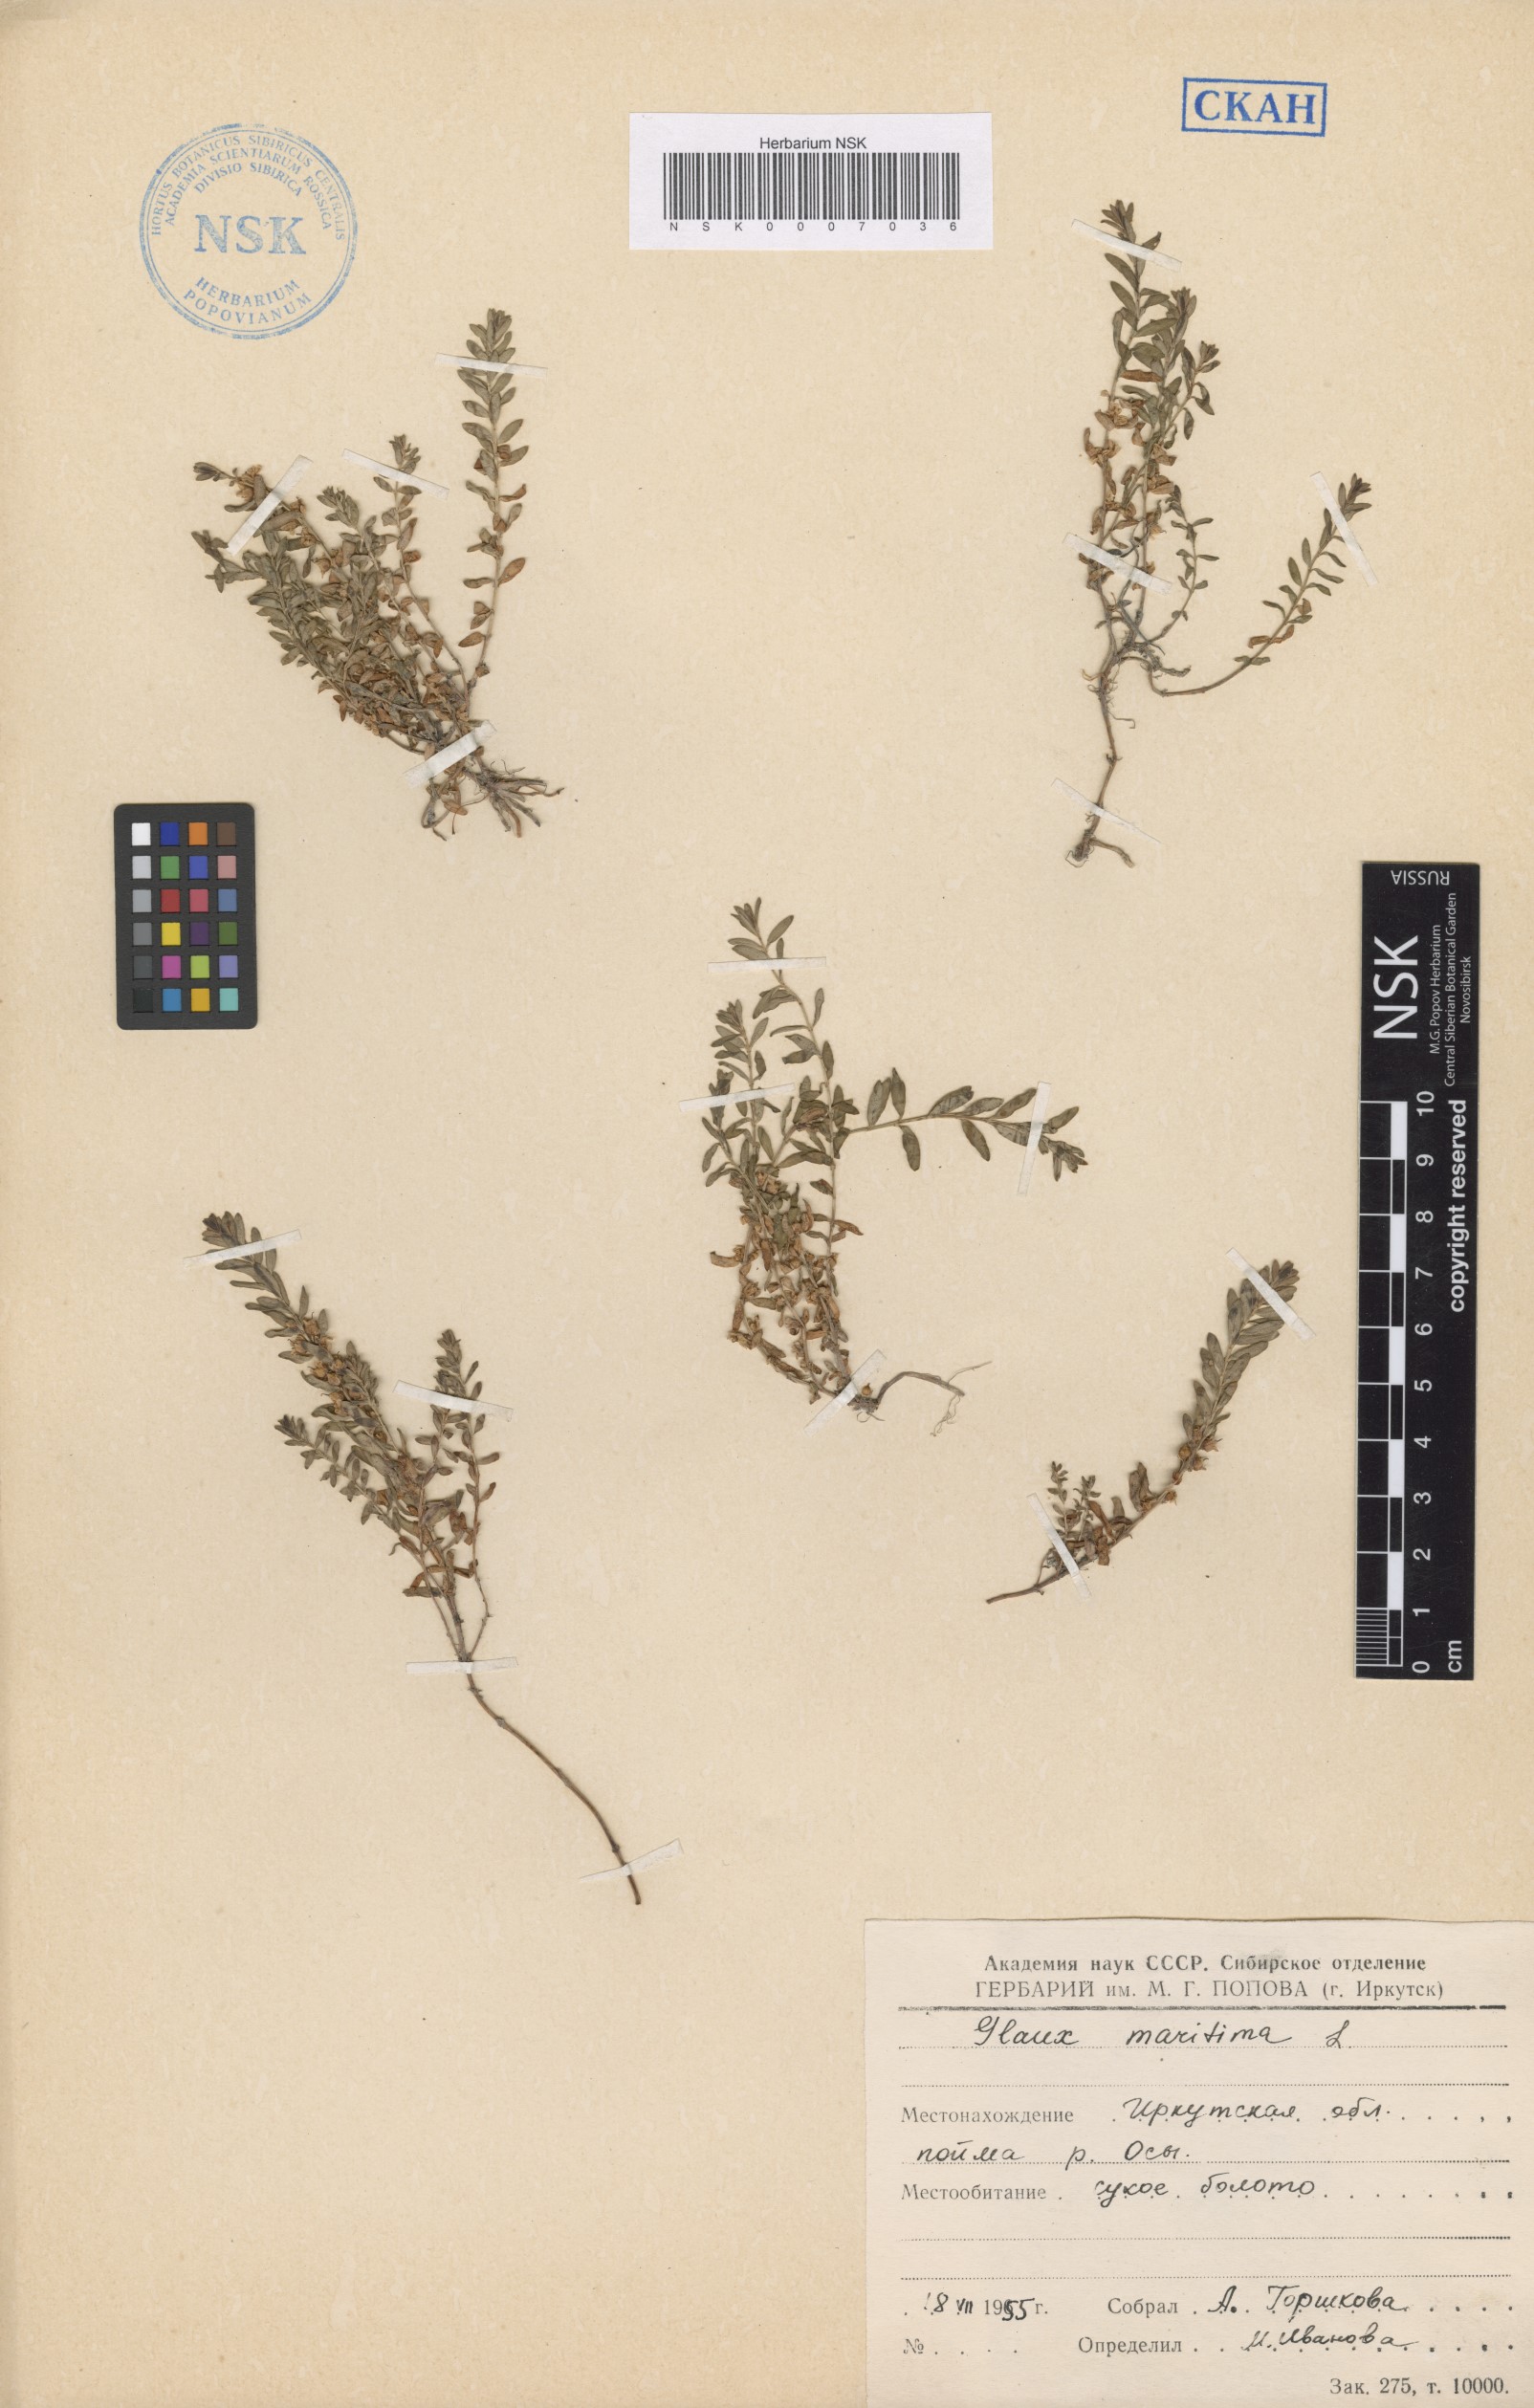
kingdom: Plantae
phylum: Tracheophyta
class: Magnoliopsida
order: Ericales
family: Primulaceae
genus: Lysimachia
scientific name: Lysimachia maritima
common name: Sea milkwort
